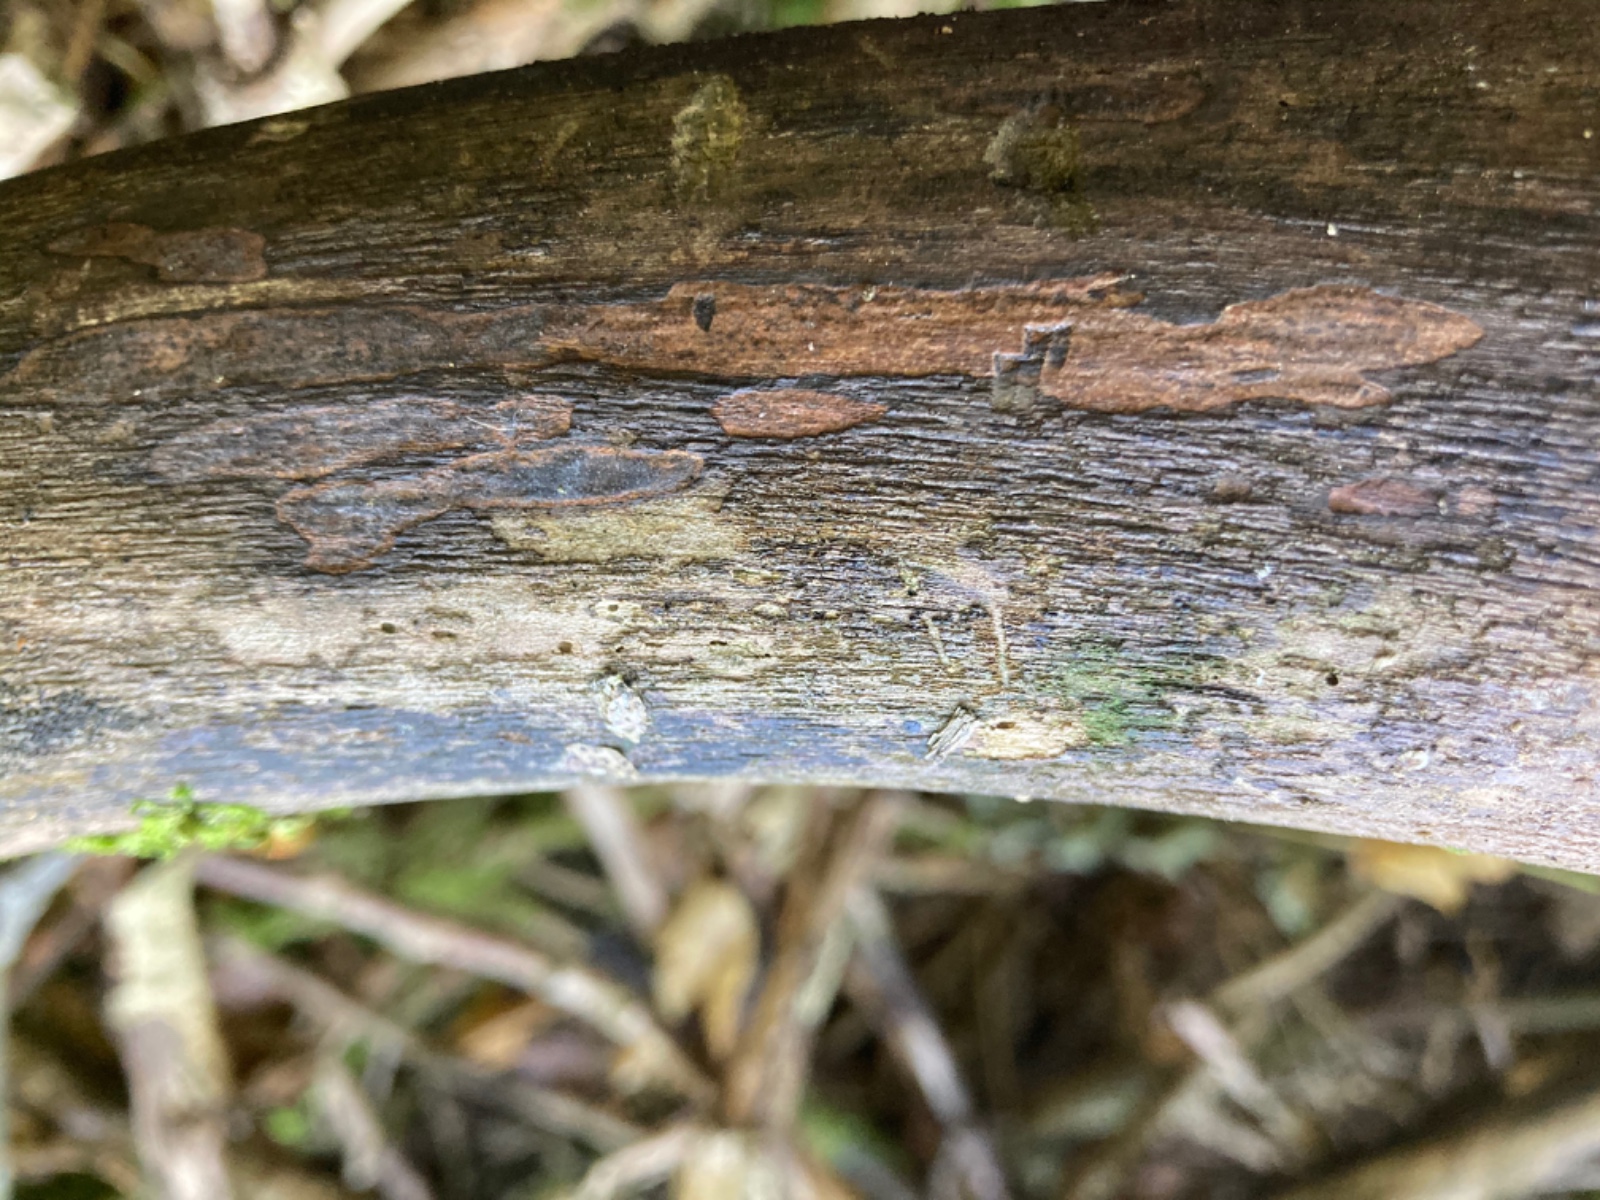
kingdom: Fungi
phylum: Ascomycota
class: Sordariomycetes
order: Xylariales
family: Lopadostomataceae
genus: Lopadostoma
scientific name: Lopadostoma pouzarii
